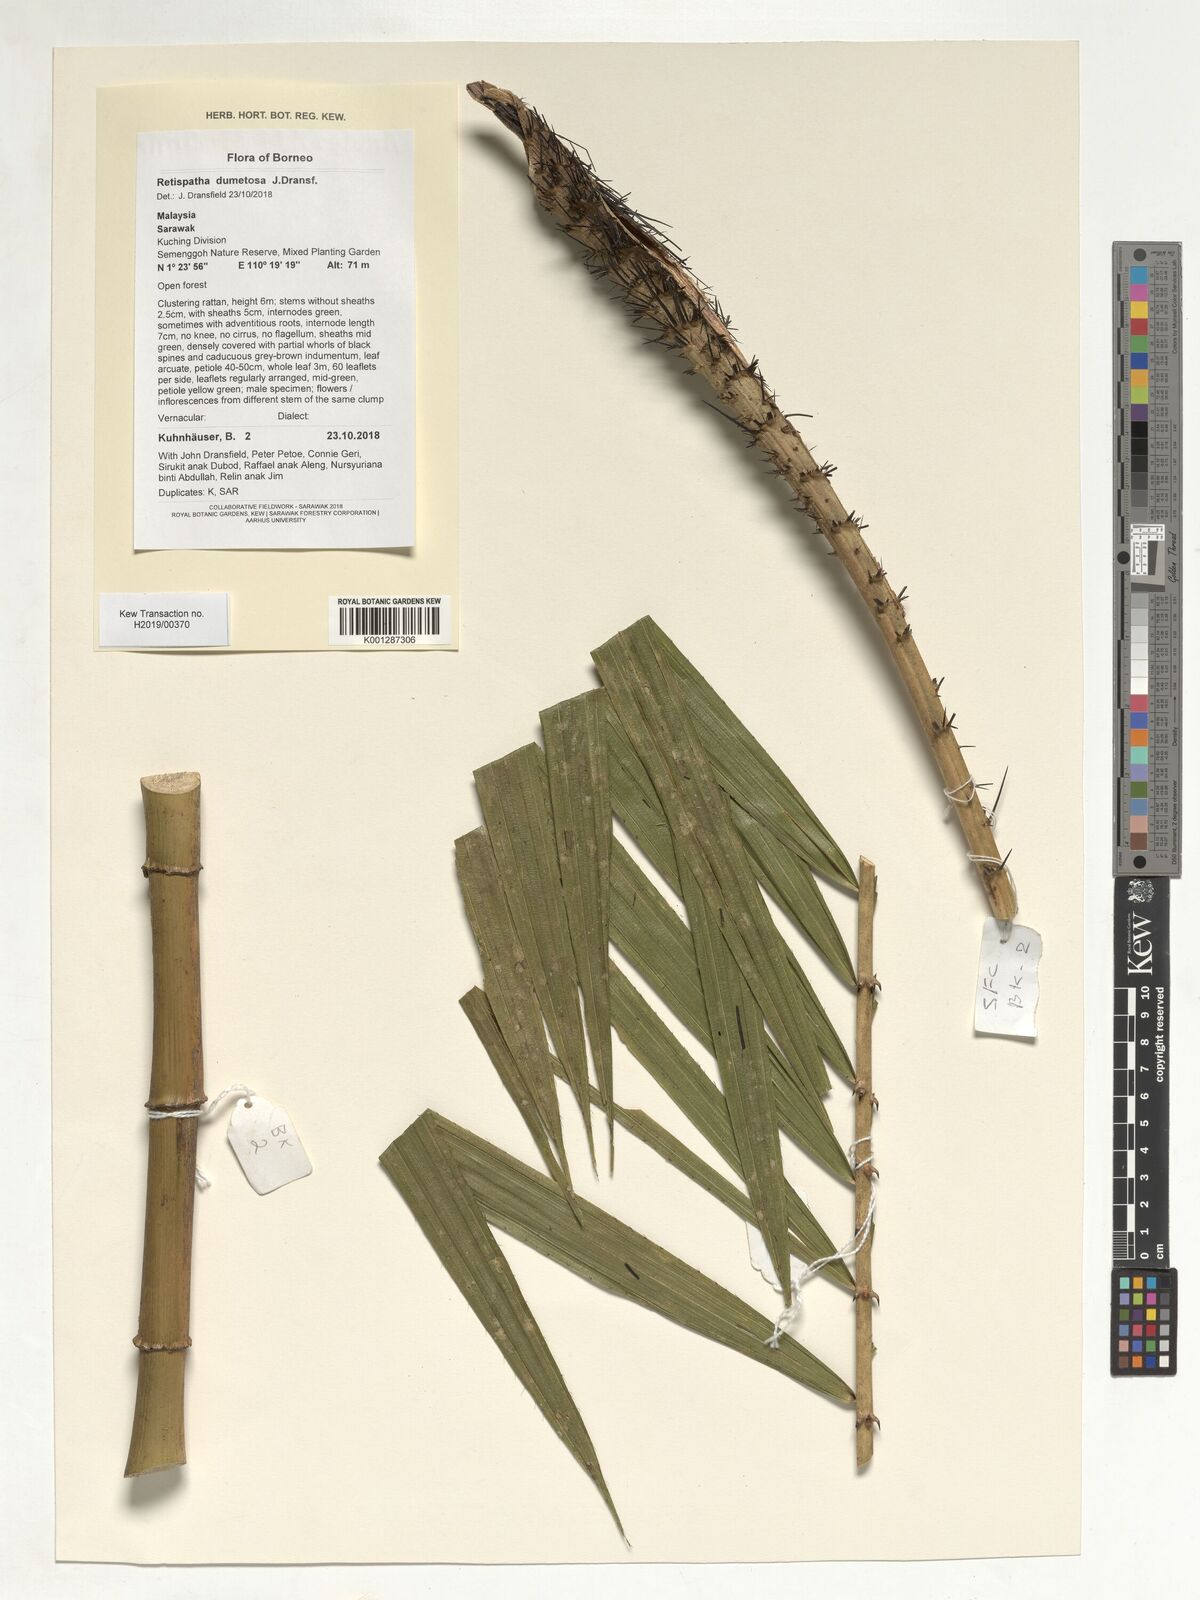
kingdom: Plantae
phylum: Tracheophyta
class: Liliopsida
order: Arecales
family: Arecaceae
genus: Calamus
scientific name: Calamus dumetosus
